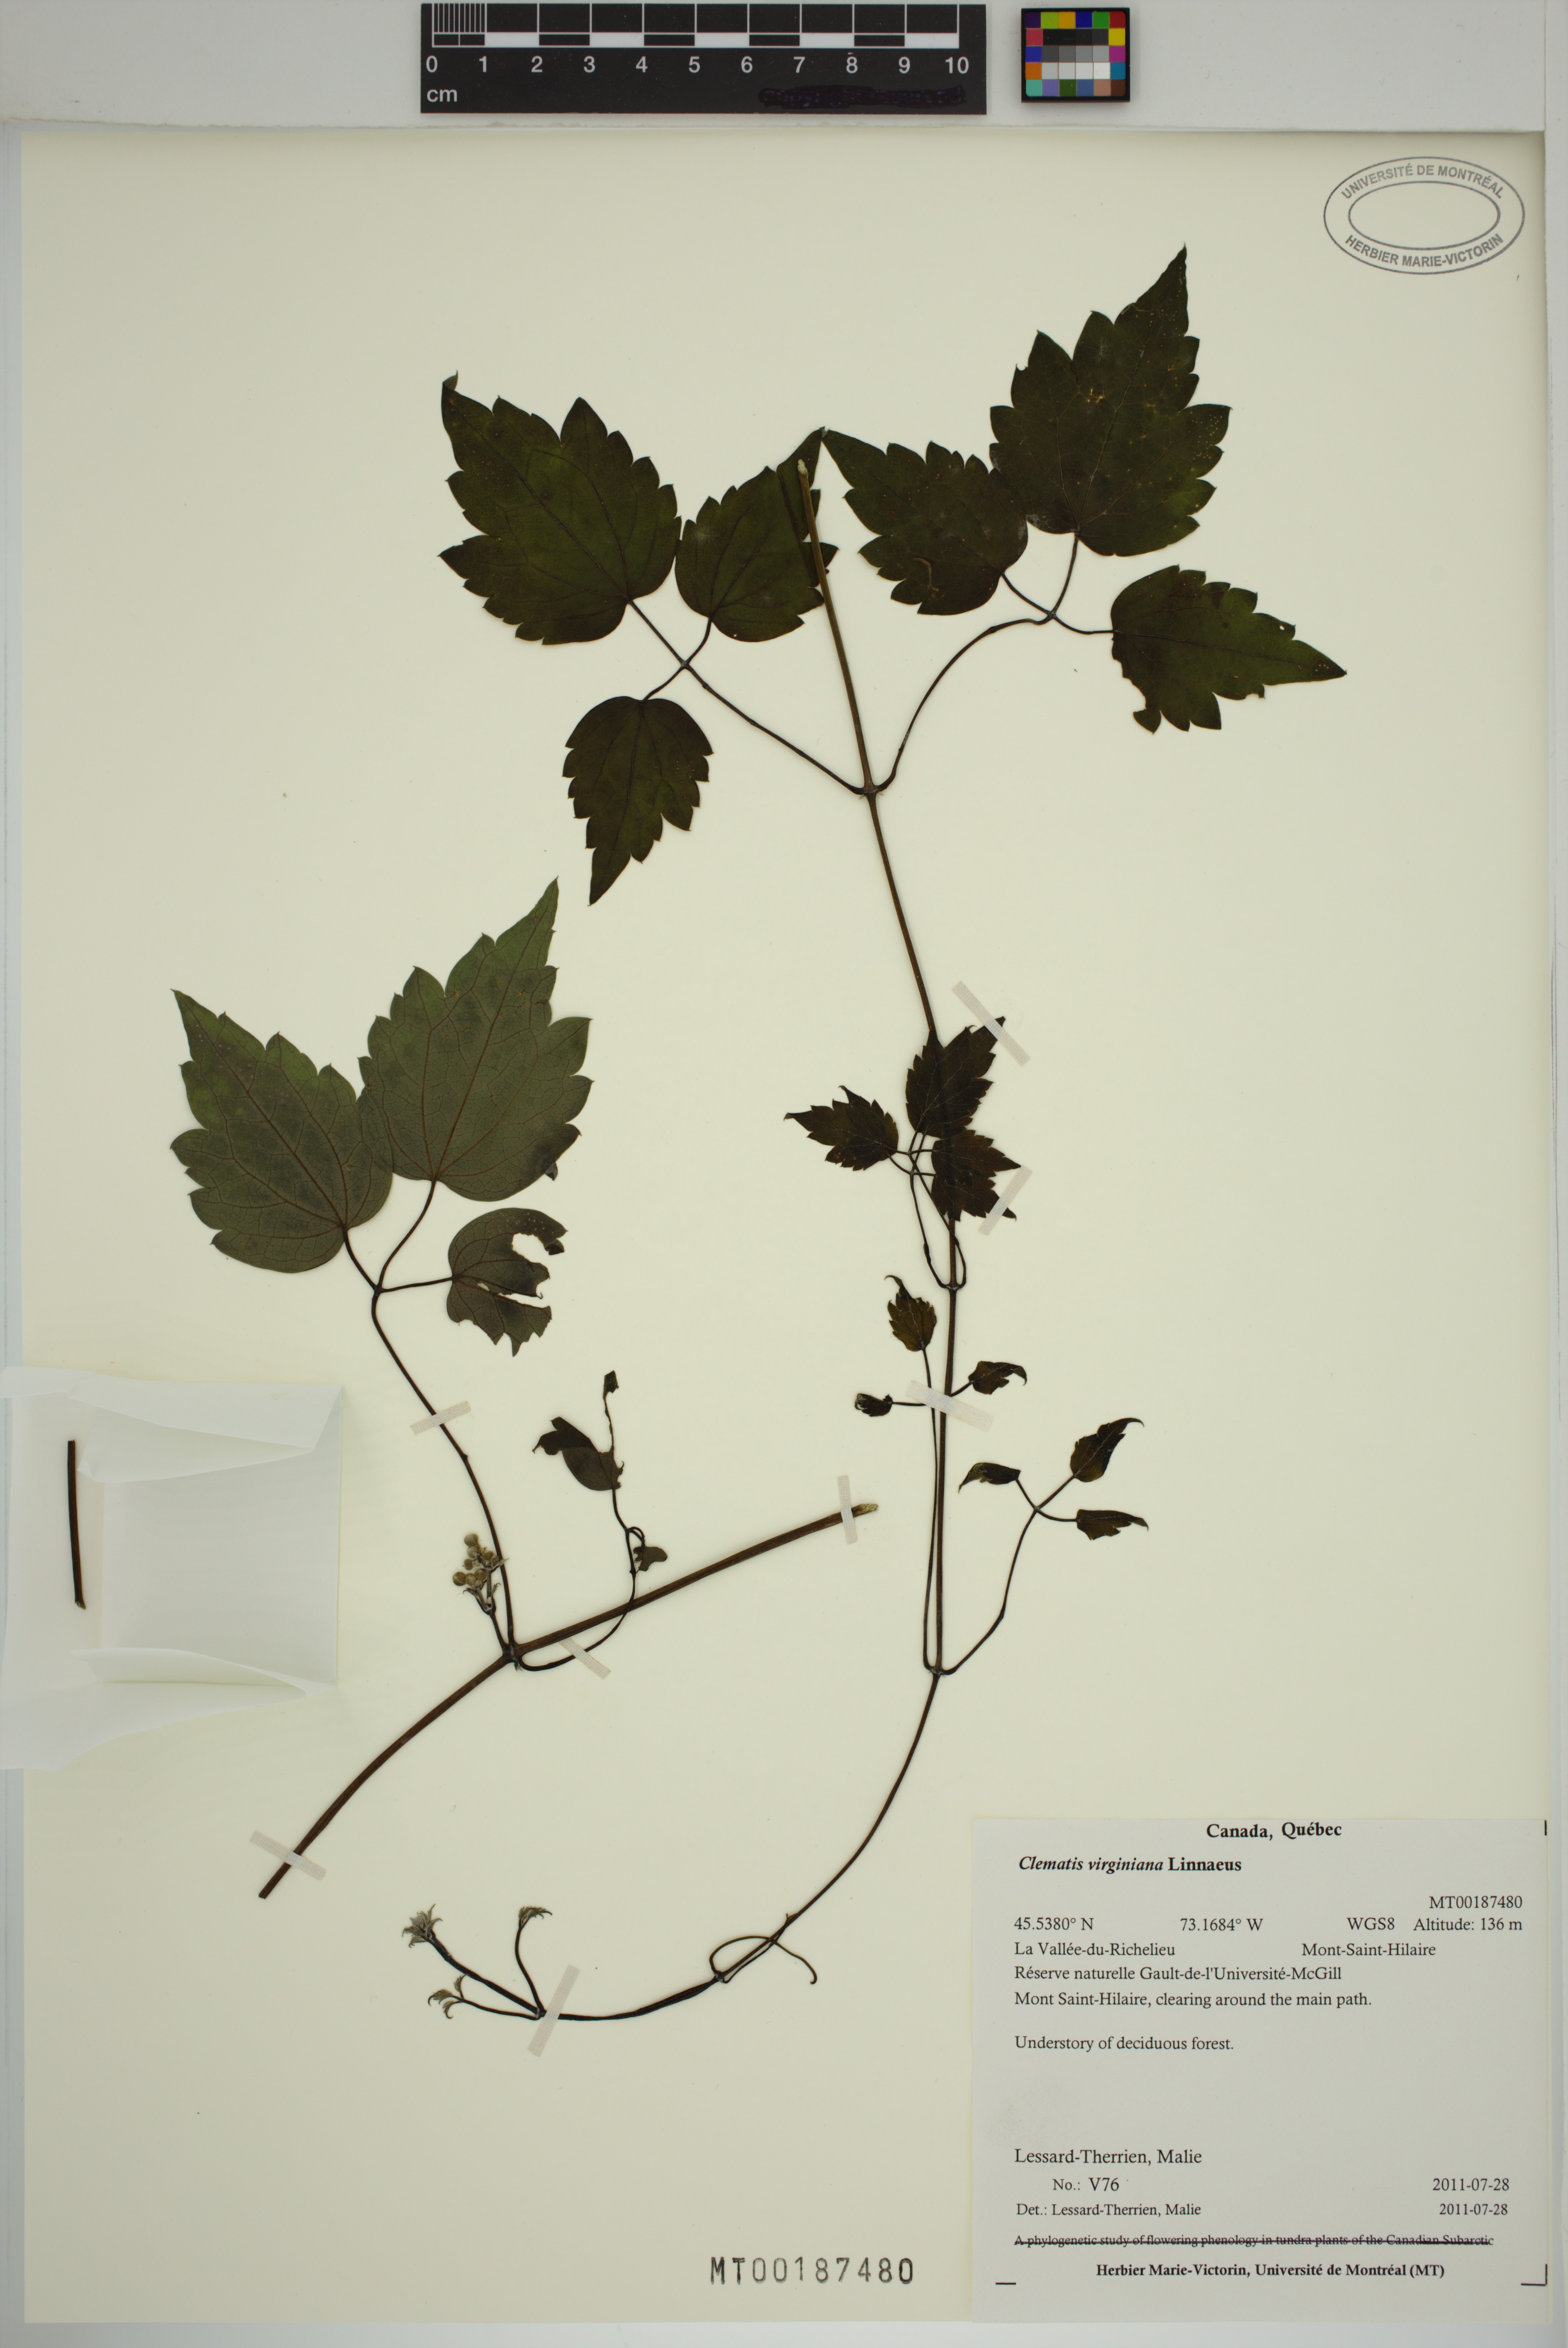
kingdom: Plantae
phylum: Tracheophyta
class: Magnoliopsida
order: Ranunculales
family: Ranunculaceae
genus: Clematis
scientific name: Clematis virginiana
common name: Virgin's-bower
